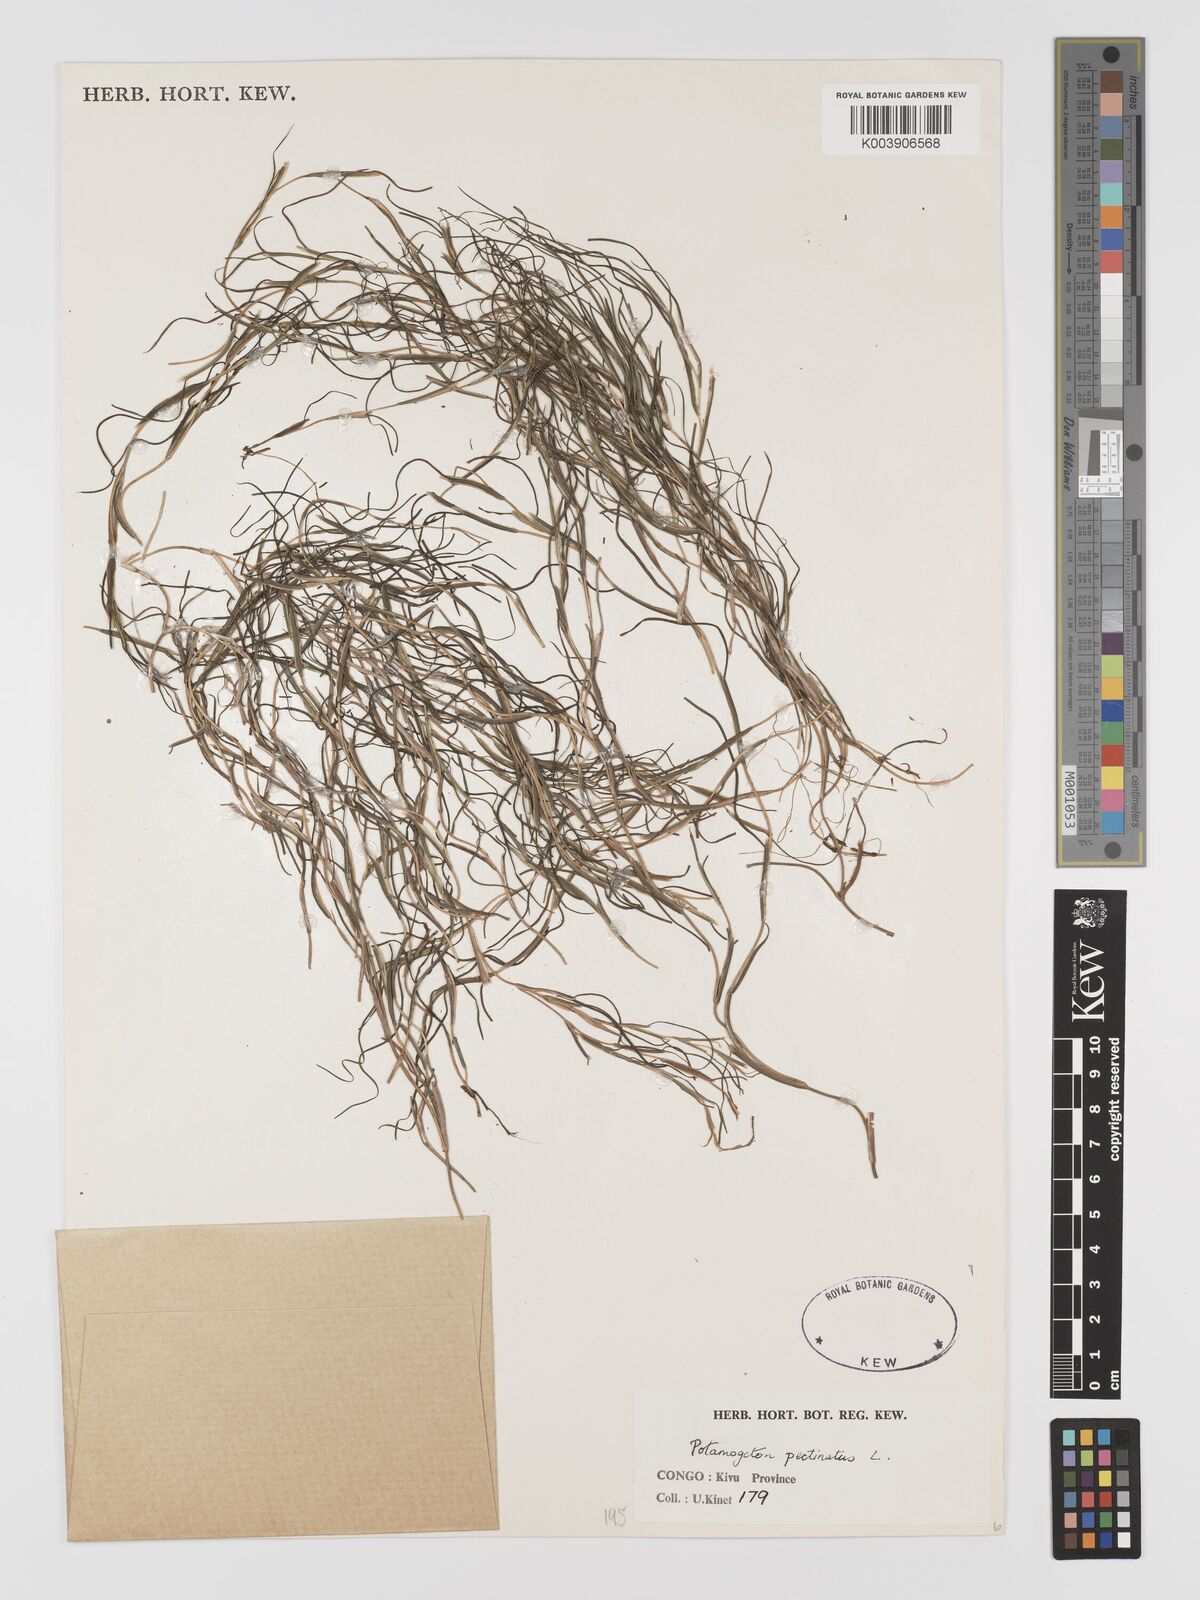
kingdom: Plantae
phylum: Tracheophyta
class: Liliopsida
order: Alismatales
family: Potamogetonaceae
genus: Stuckenia
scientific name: Stuckenia pectinata
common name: Sago pondweed
